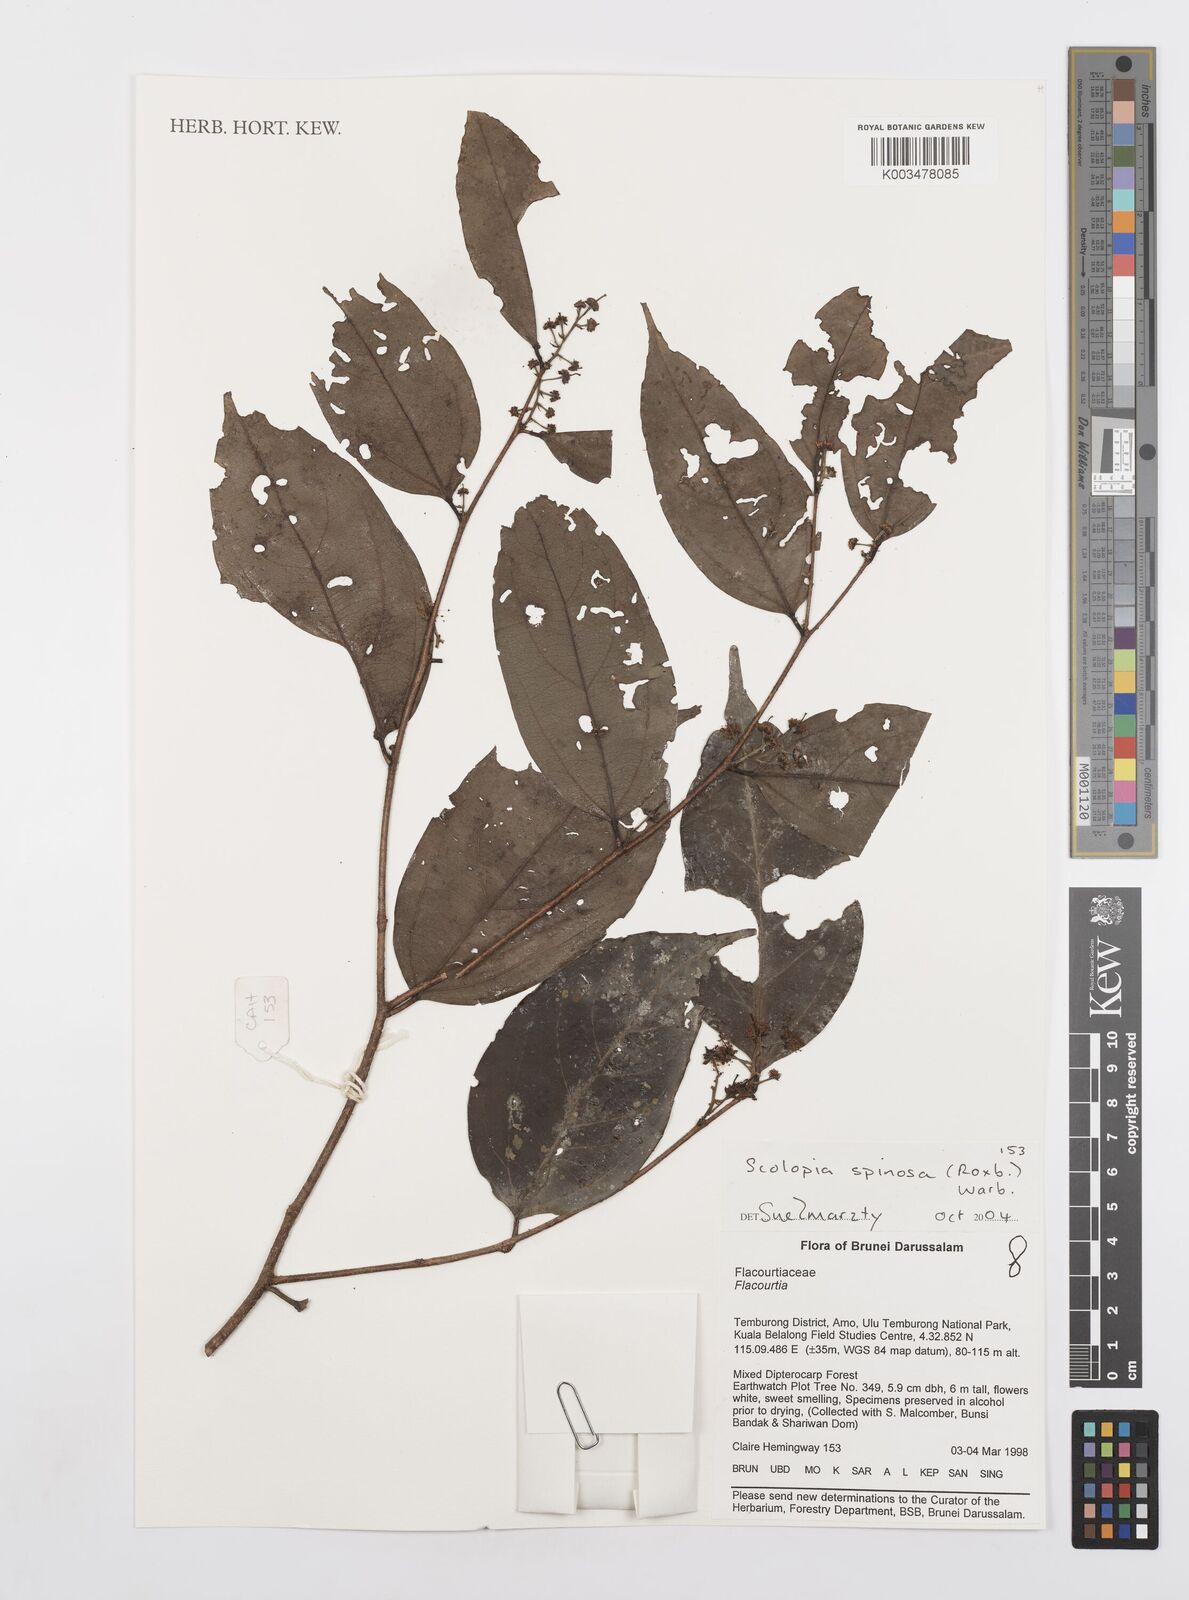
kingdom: Plantae
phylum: Tracheophyta
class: Magnoliopsida
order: Malpighiales
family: Salicaceae
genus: Scolopia
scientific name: Scolopia spinosa
